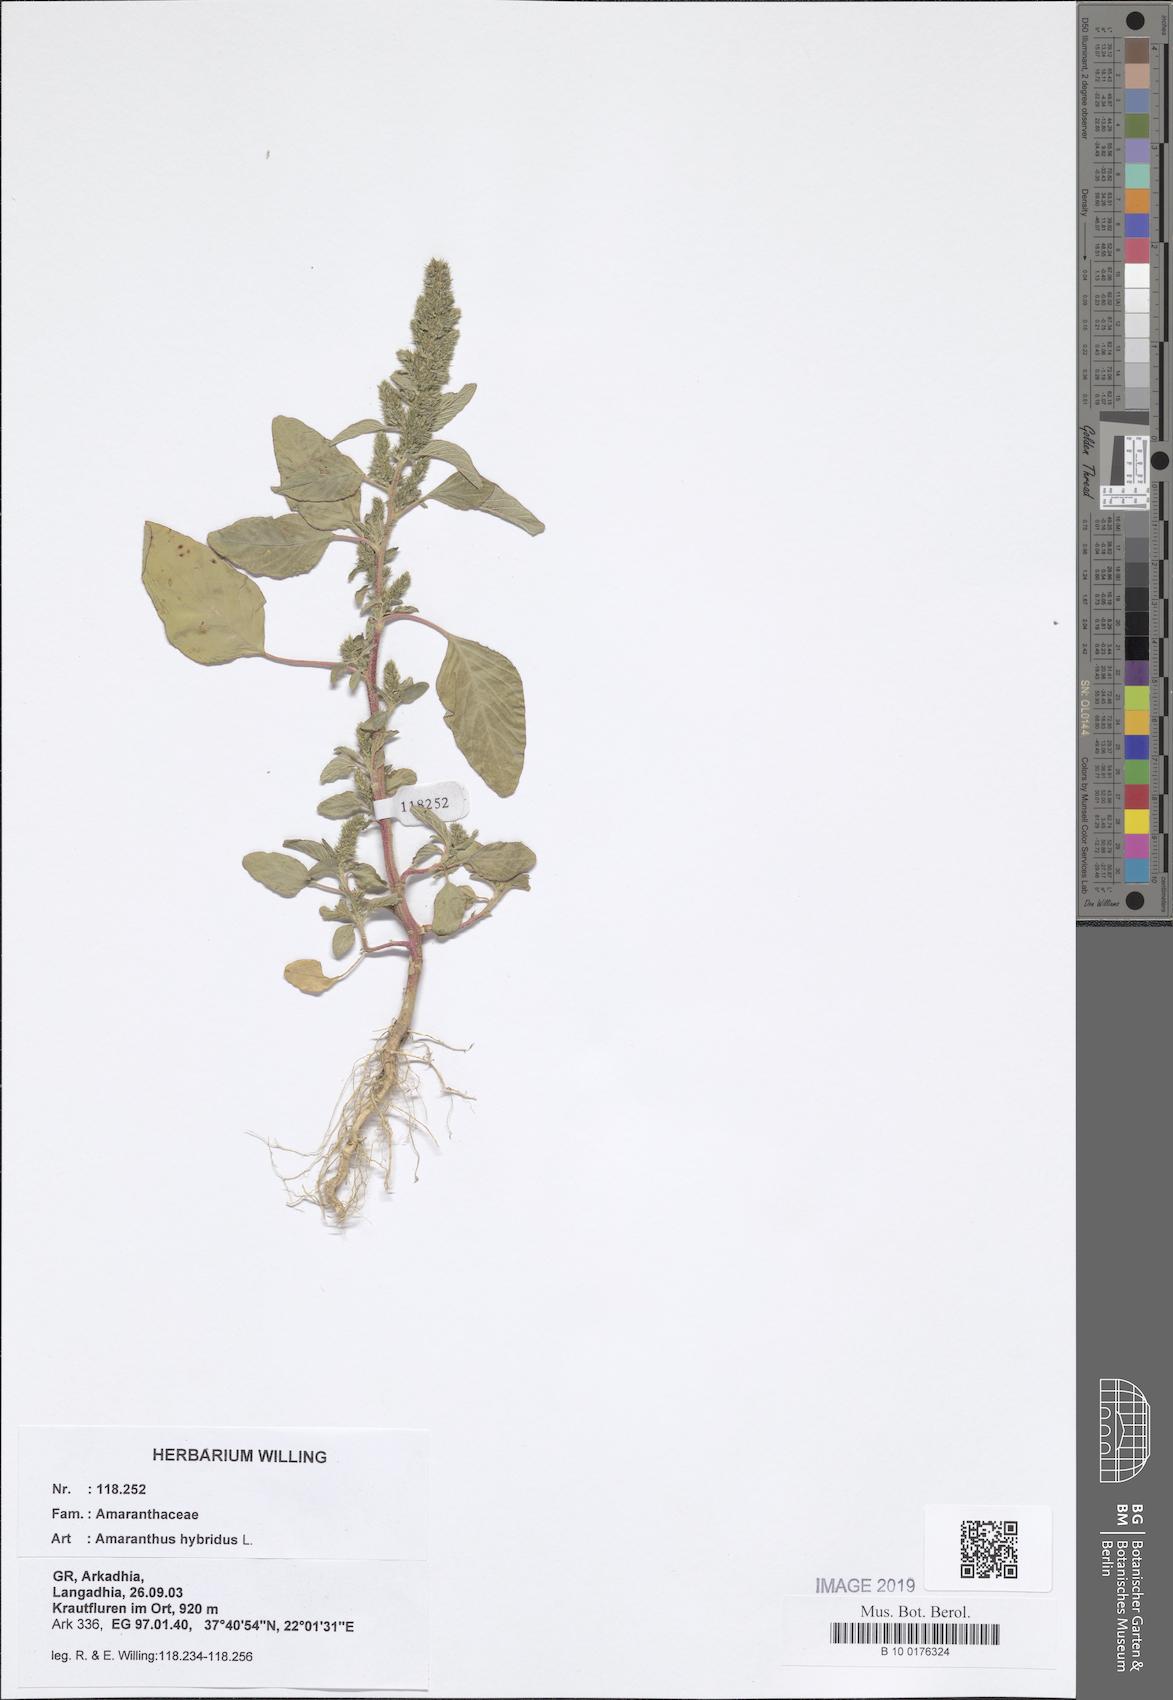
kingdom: Plantae
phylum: Tracheophyta
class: Magnoliopsida
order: Caryophyllales
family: Amaranthaceae
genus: Amaranthus
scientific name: Amaranthus hybridus
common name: Green amaranth
